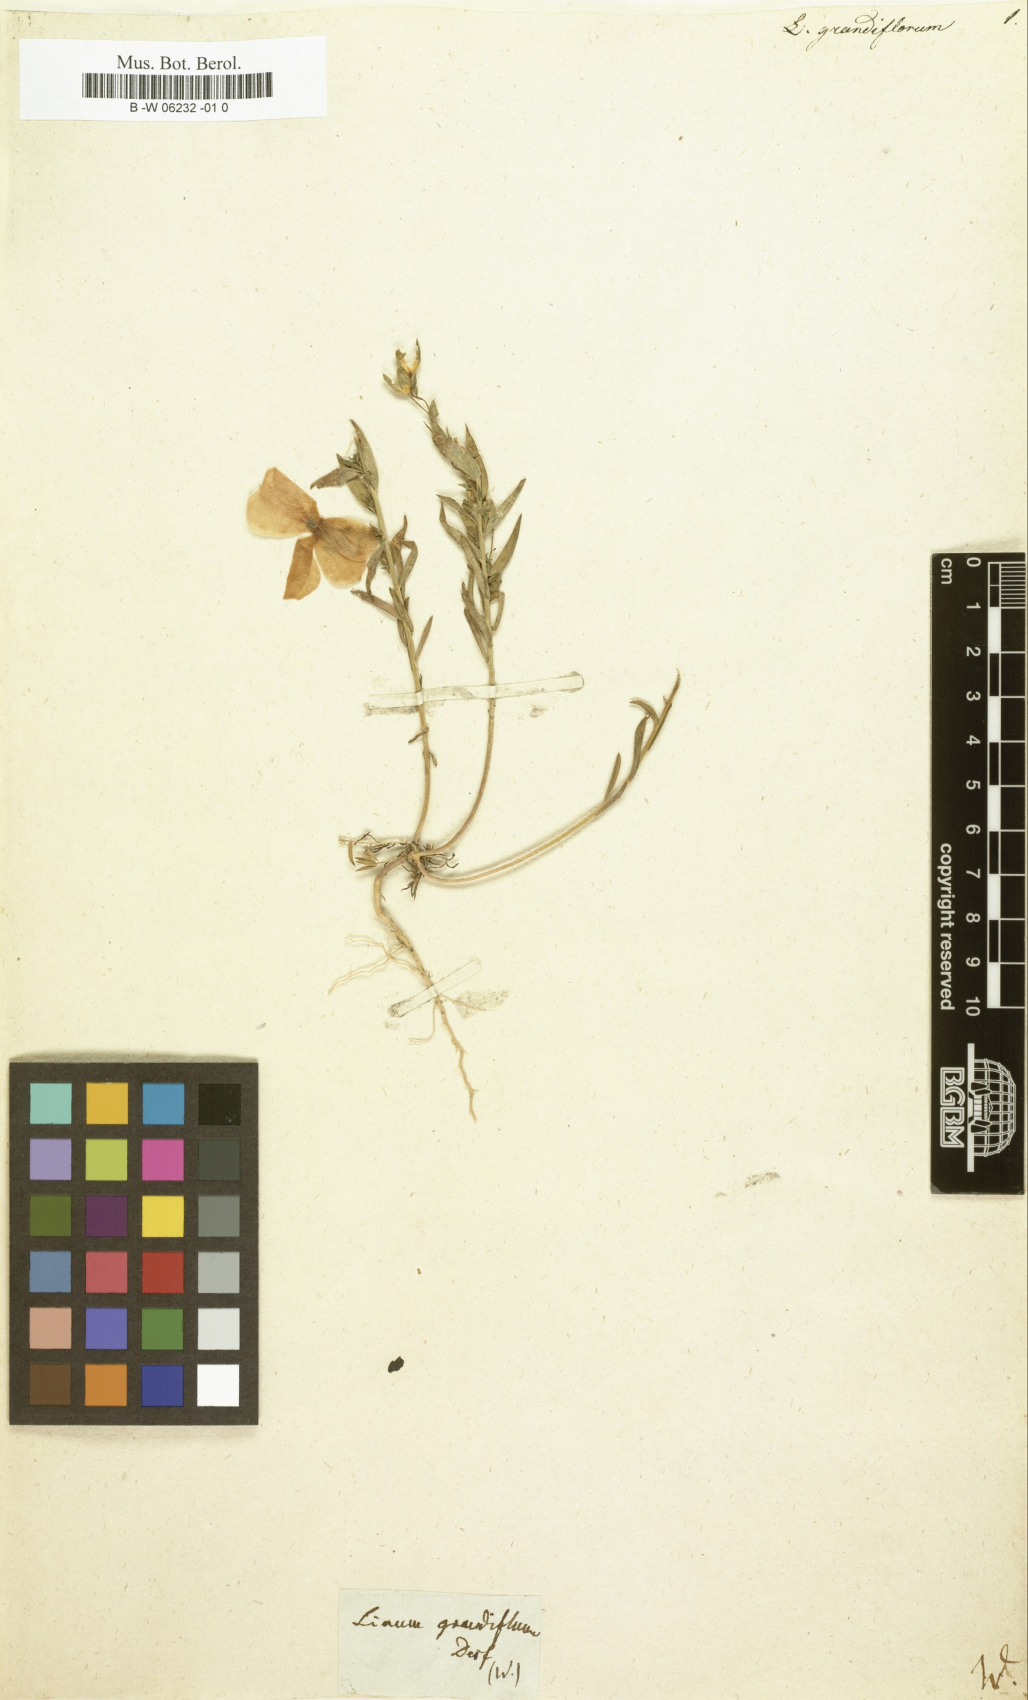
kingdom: Plantae
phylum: Tracheophyta
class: Magnoliopsida
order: Malpighiales
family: Linaceae
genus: Linum
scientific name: Linum grandiflorum
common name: Crimson flax
